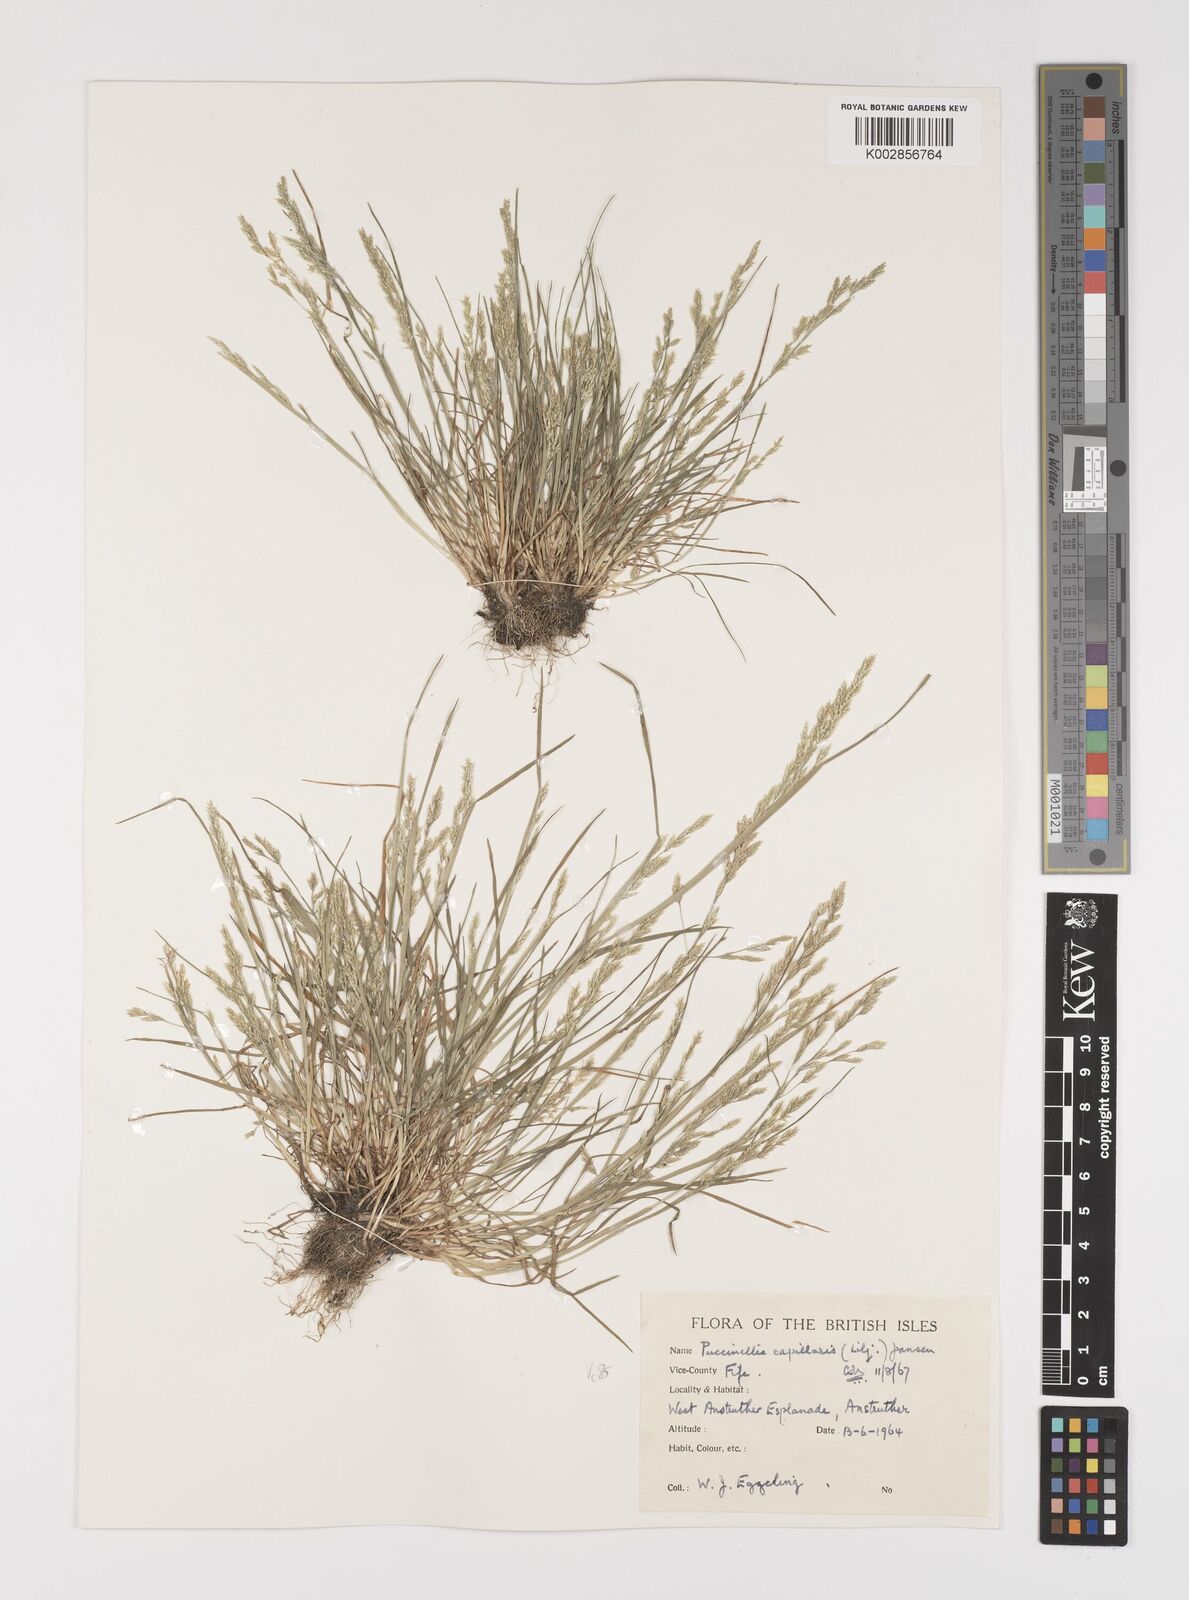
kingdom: Plantae
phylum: Tracheophyta
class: Liliopsida
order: Poales
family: Poaceae
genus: Puccinellia
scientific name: Puccinellia distans
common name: Weeping alkaligrass
